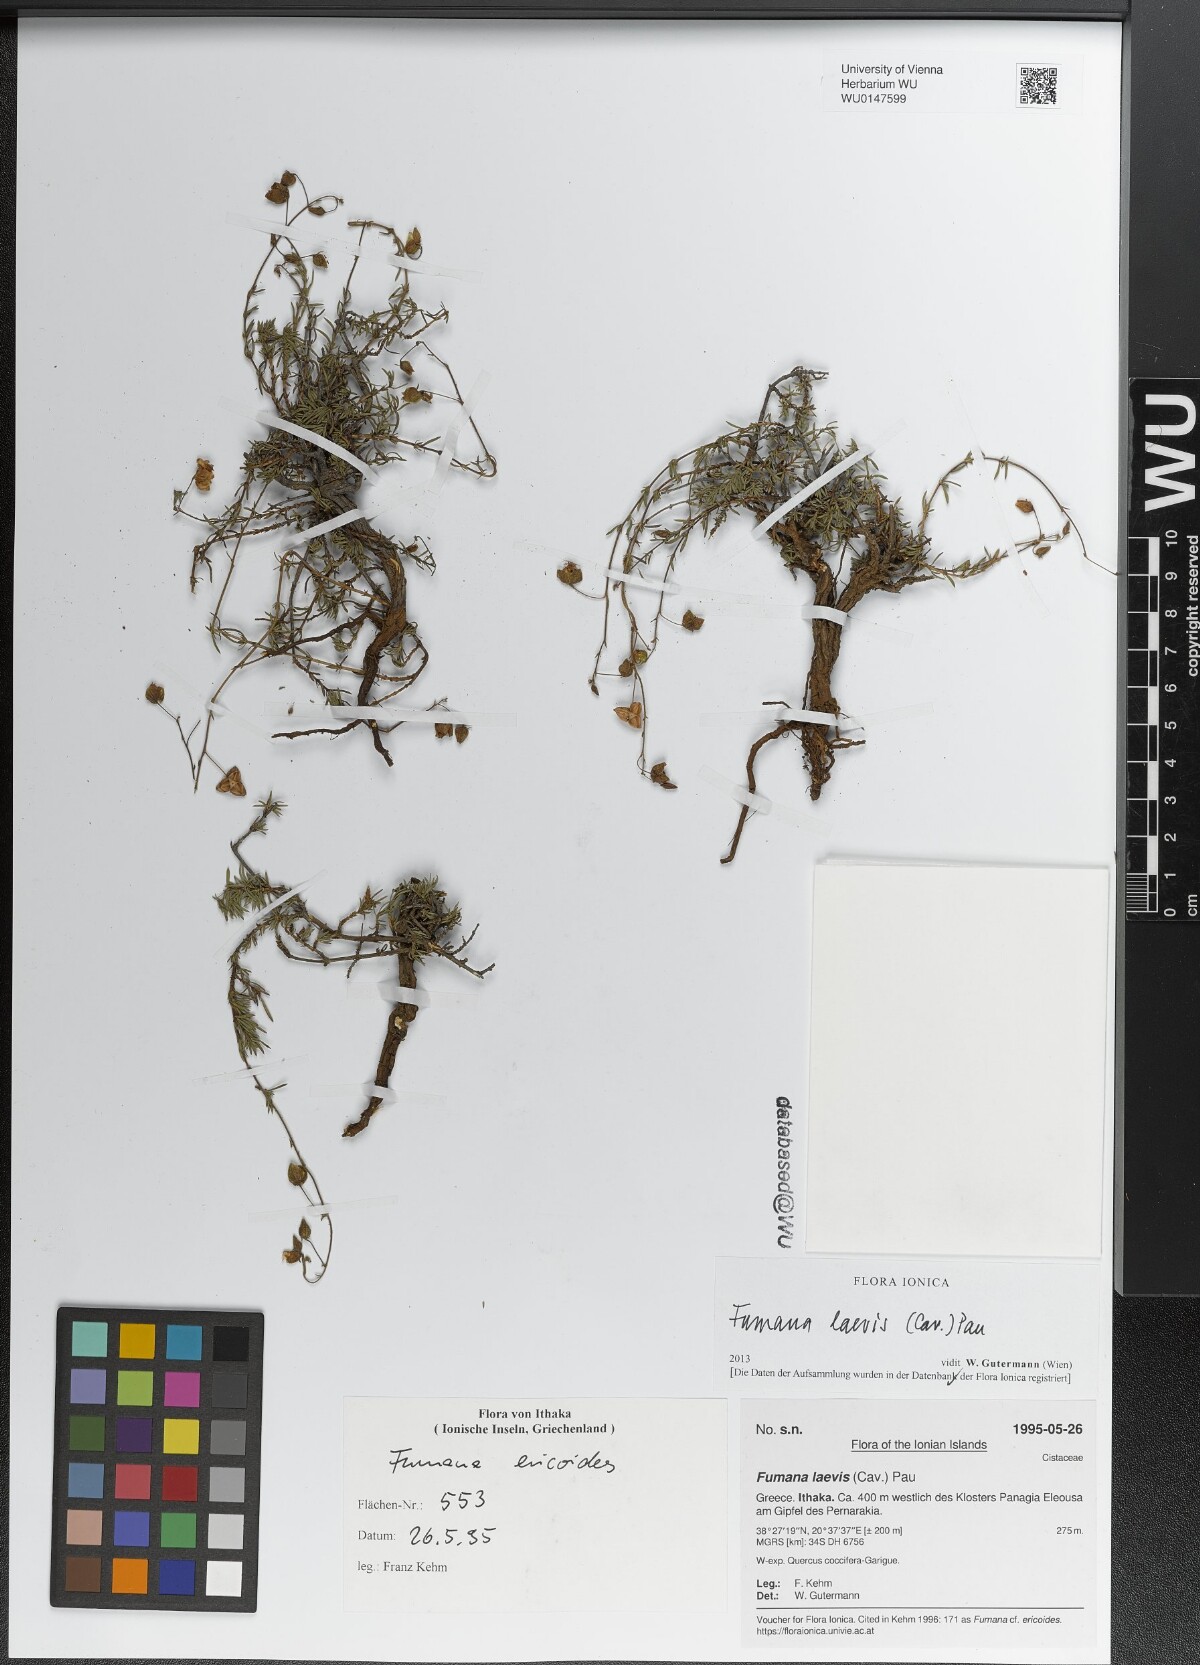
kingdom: Plantae
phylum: Tracheophyta
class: Magnoliopsida
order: Malvales
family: Cistaceae
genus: Fumana
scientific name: Fumana laevis
